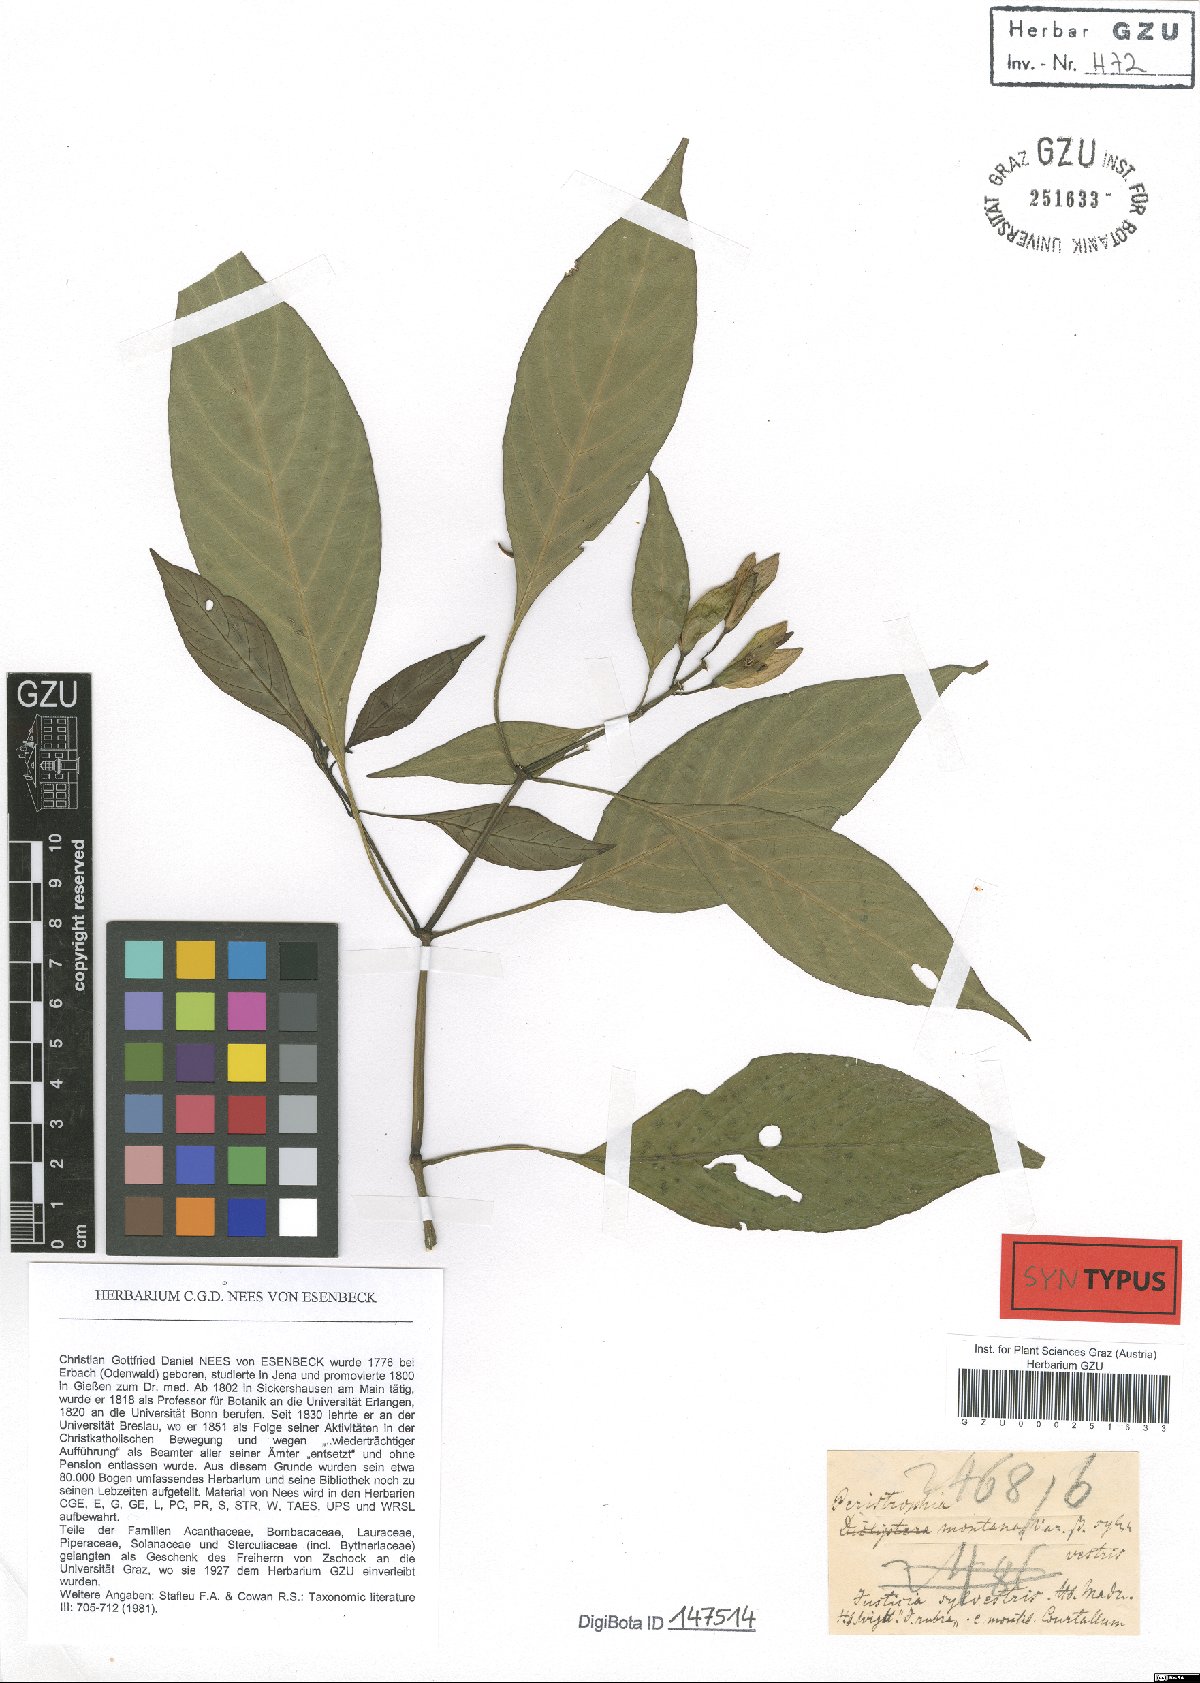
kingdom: Plantae
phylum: Tracheophyta
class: Magnoliopsida
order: Lamiales
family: Acanthaceae
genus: Dicliptera
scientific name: Dicliptera baphica
